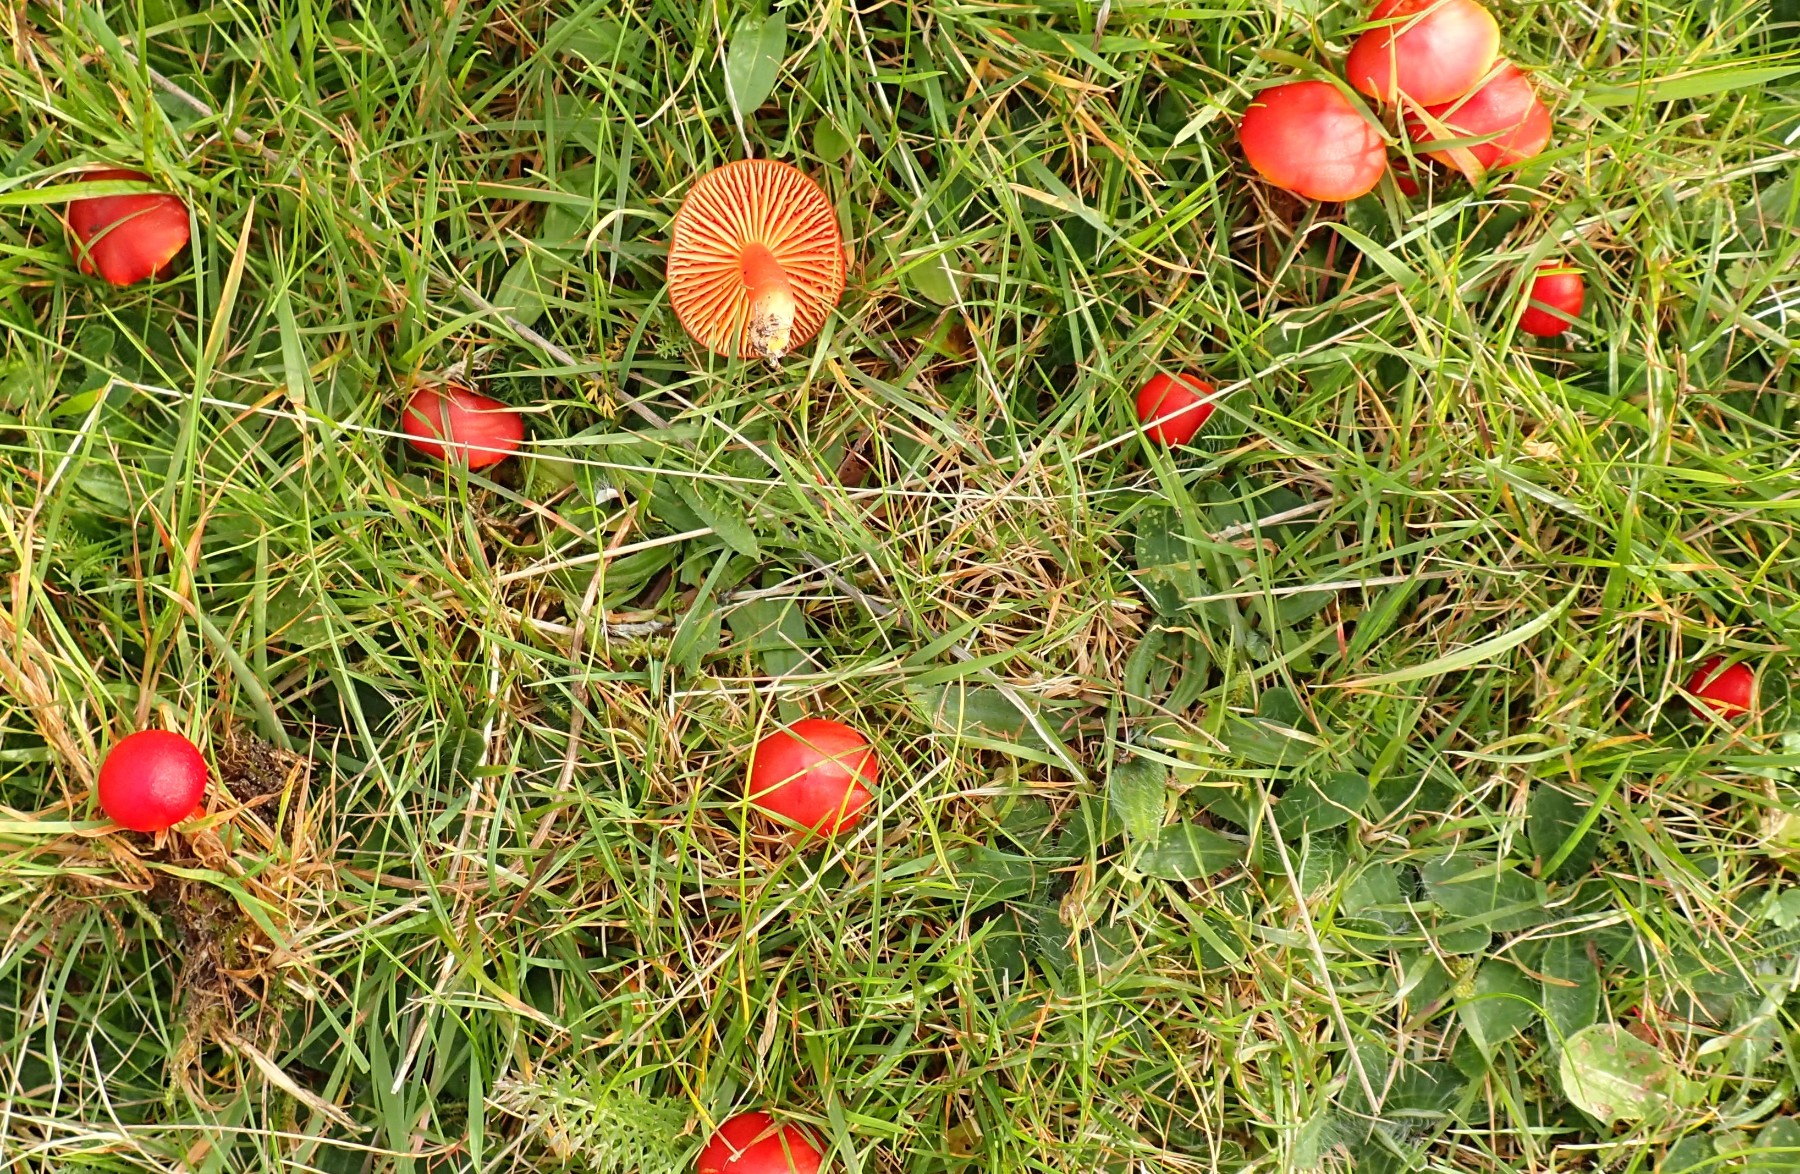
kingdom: Fungi
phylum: Basidiomycota
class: Agaricomycetes
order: Agaricales
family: Hygrophoraceae
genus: Hygrocybe
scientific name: Hygrocybe coccinea
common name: cinnober-vokshat
